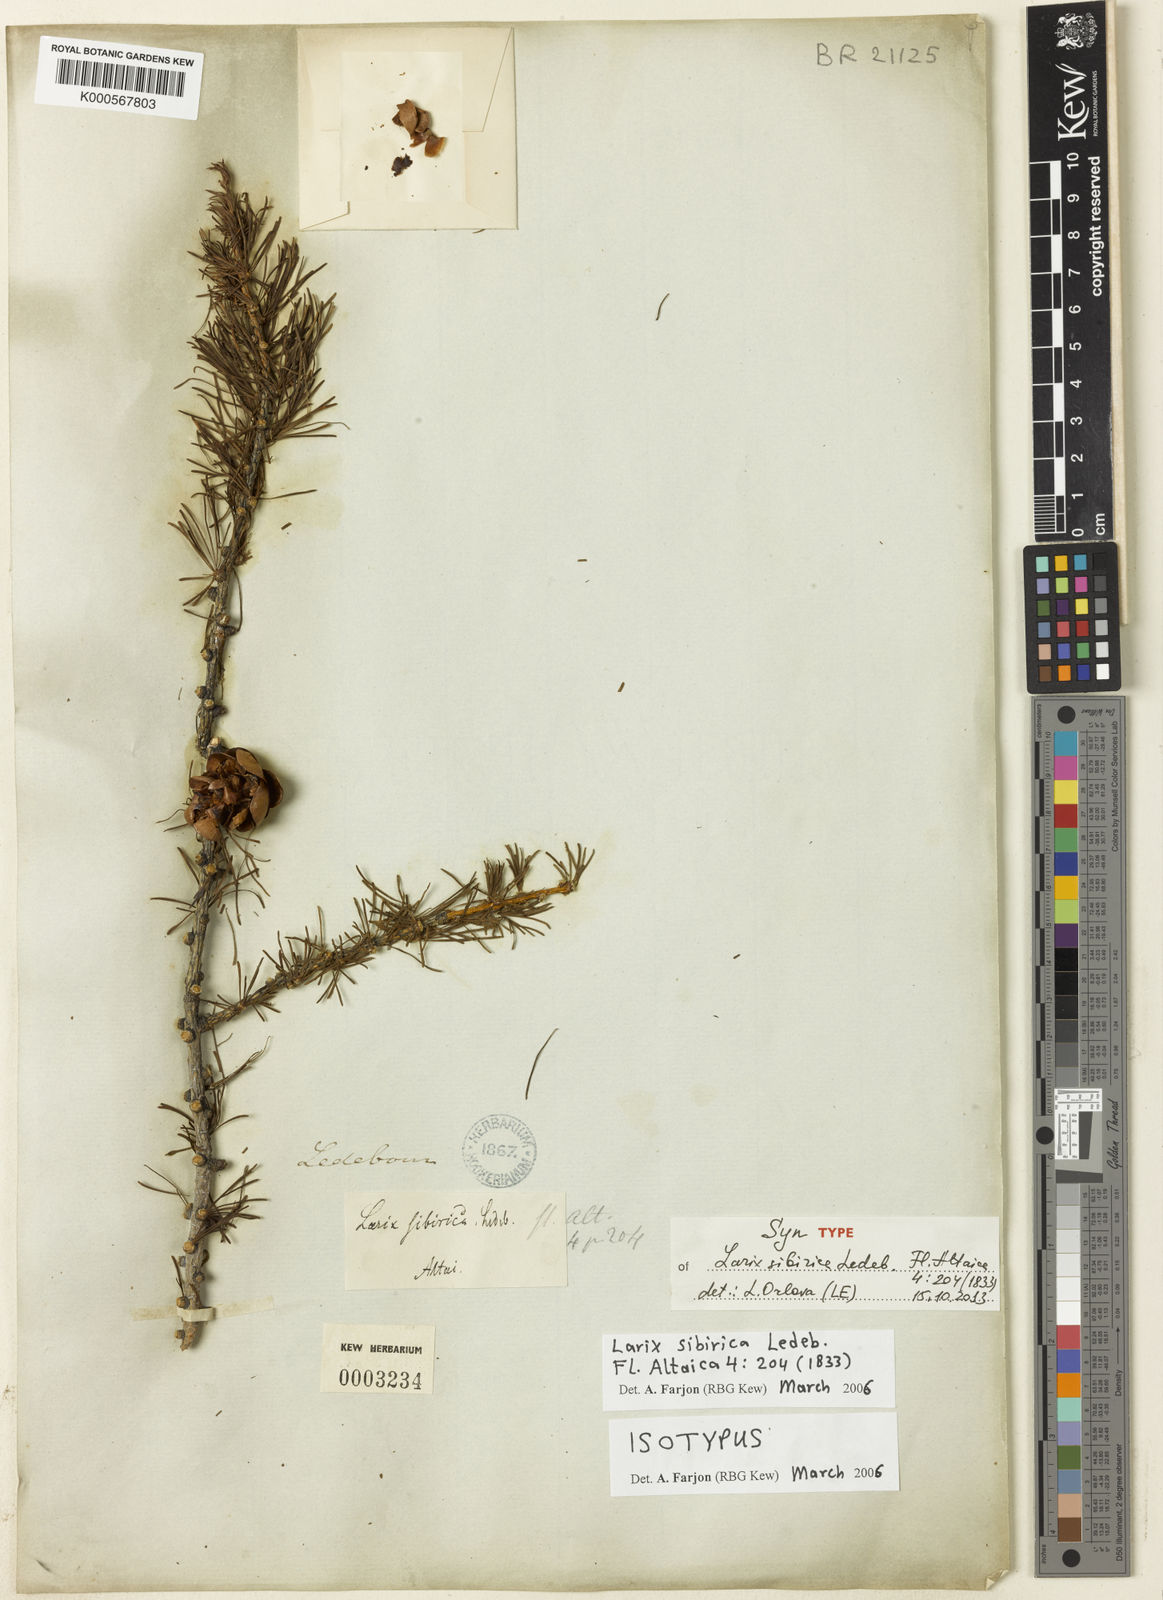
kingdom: Plantae
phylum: Tracheophyta
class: Pinopsida
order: Pinales
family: Pinaceae
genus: Larix
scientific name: Larix sibirica
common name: Siberian larch
